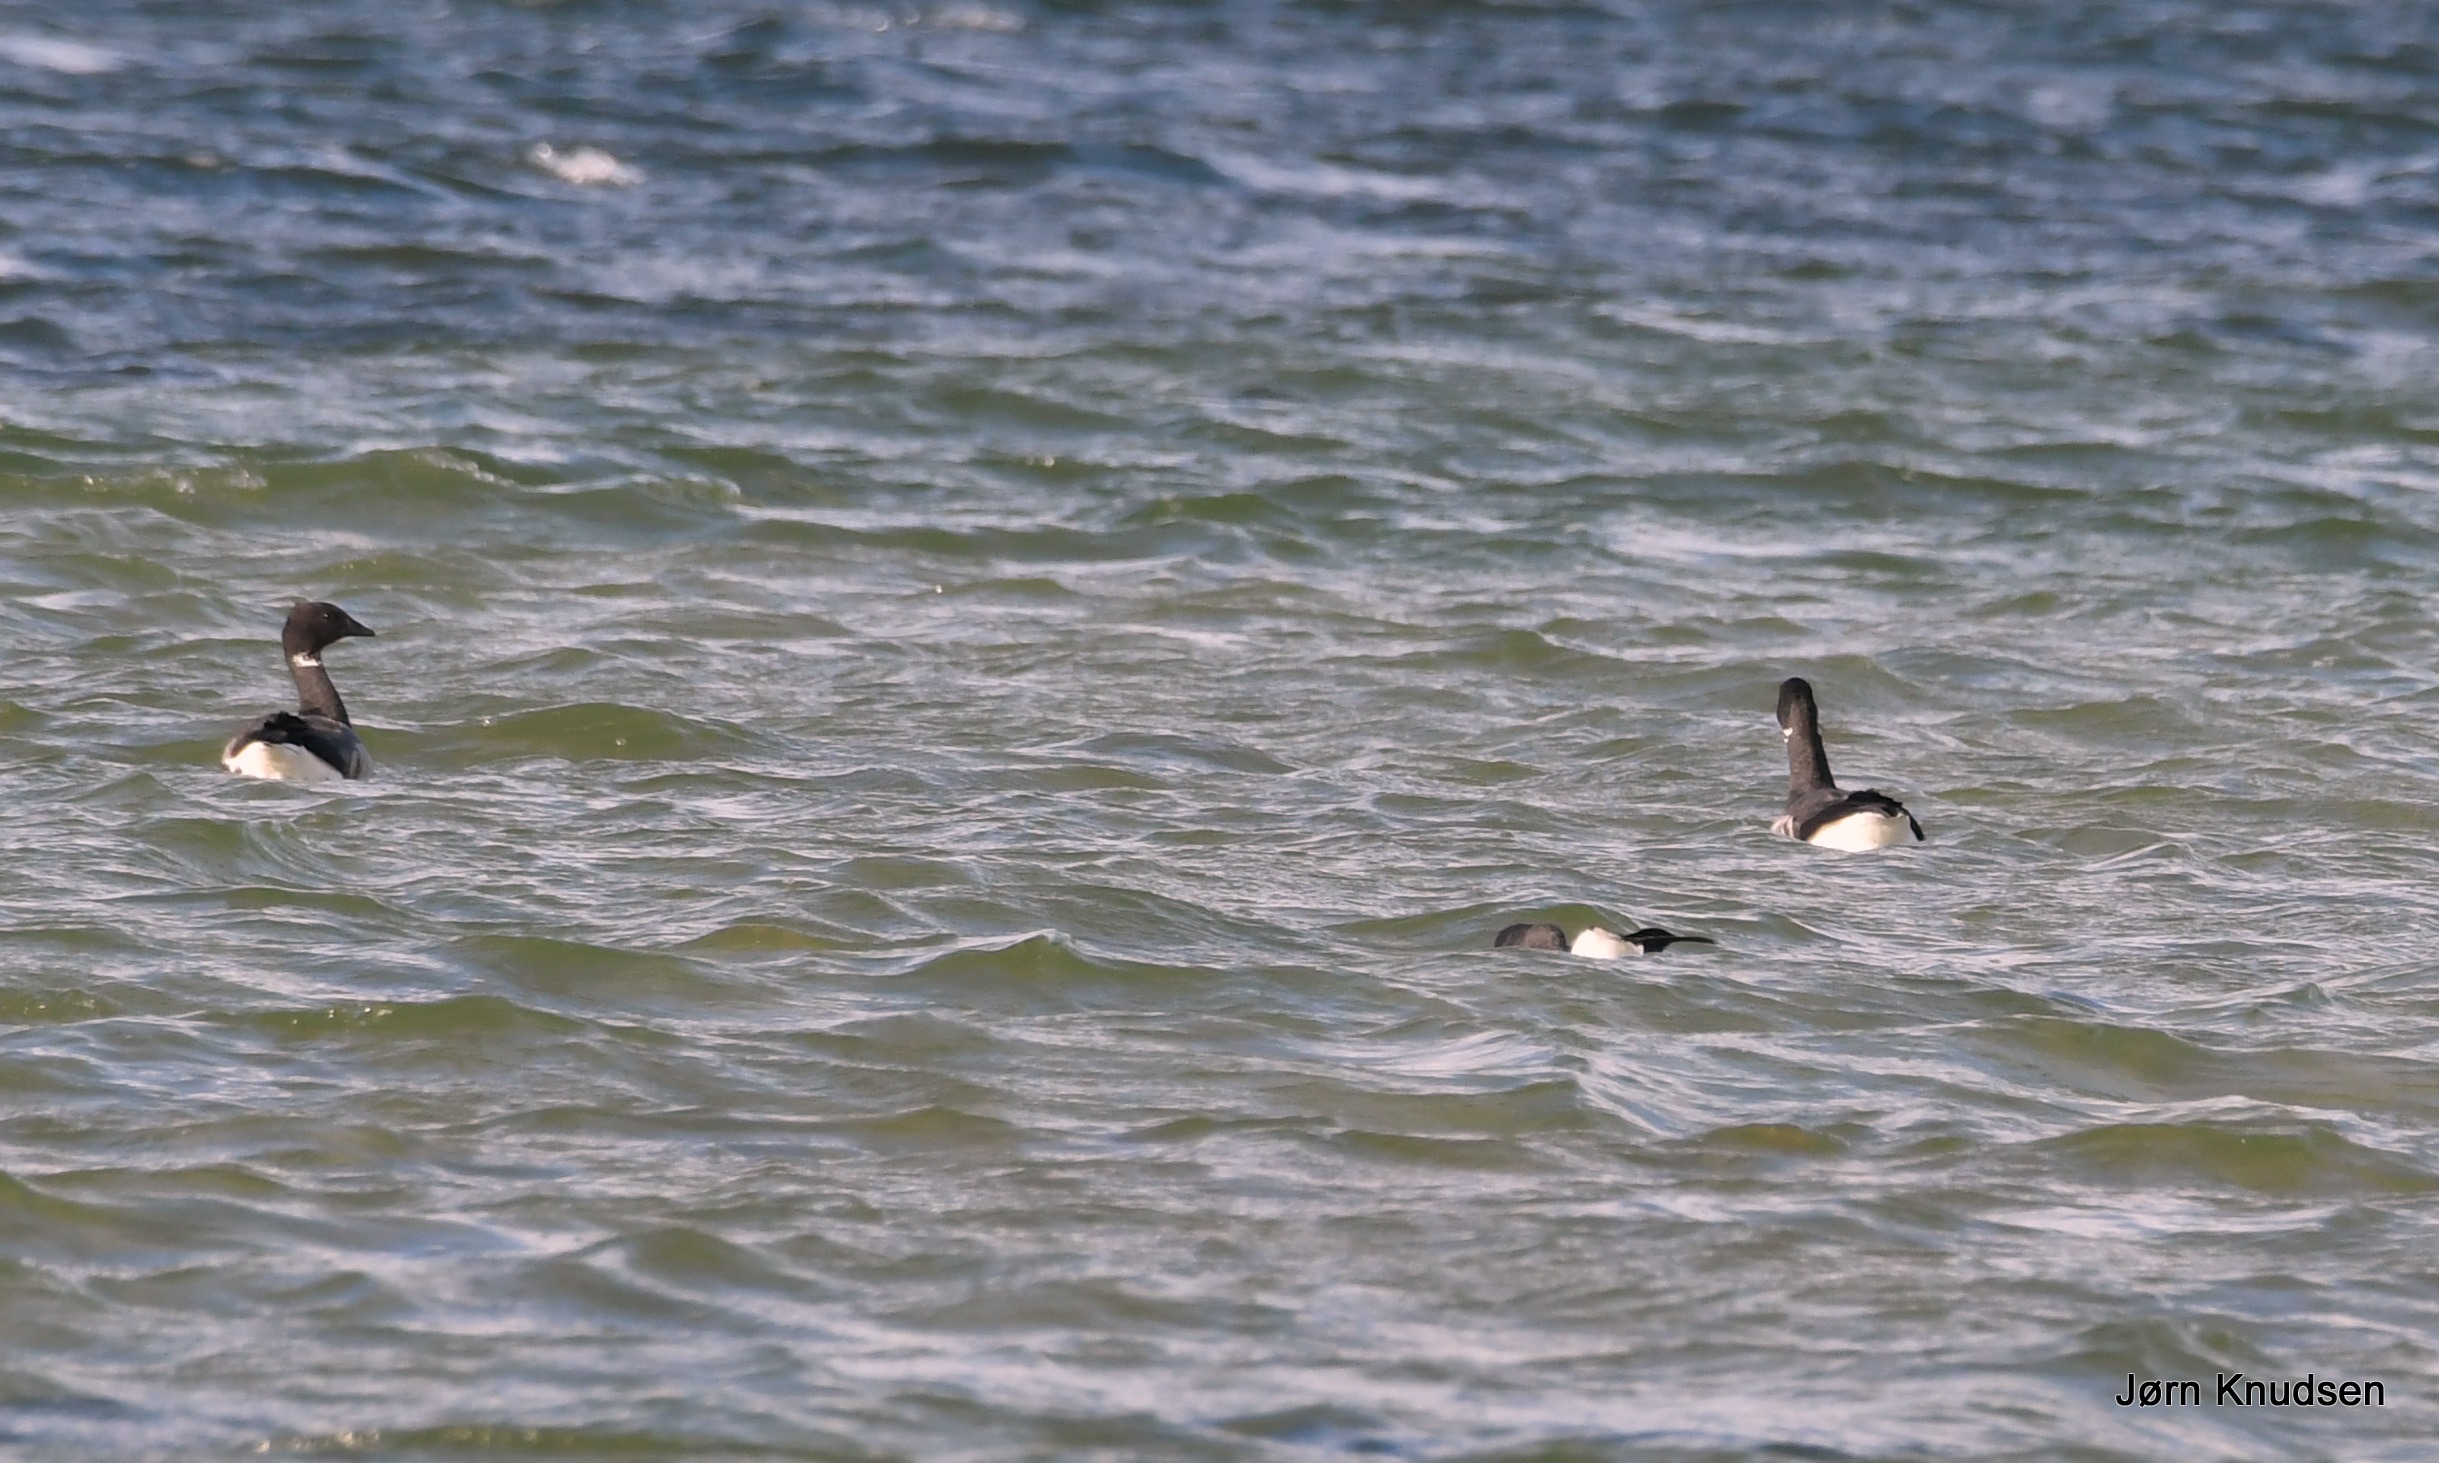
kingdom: Animalia
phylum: Chordata
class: Aves
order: Anseriformes
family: Anatidae
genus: Branta
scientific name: Branta bernicla
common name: Knortegås
